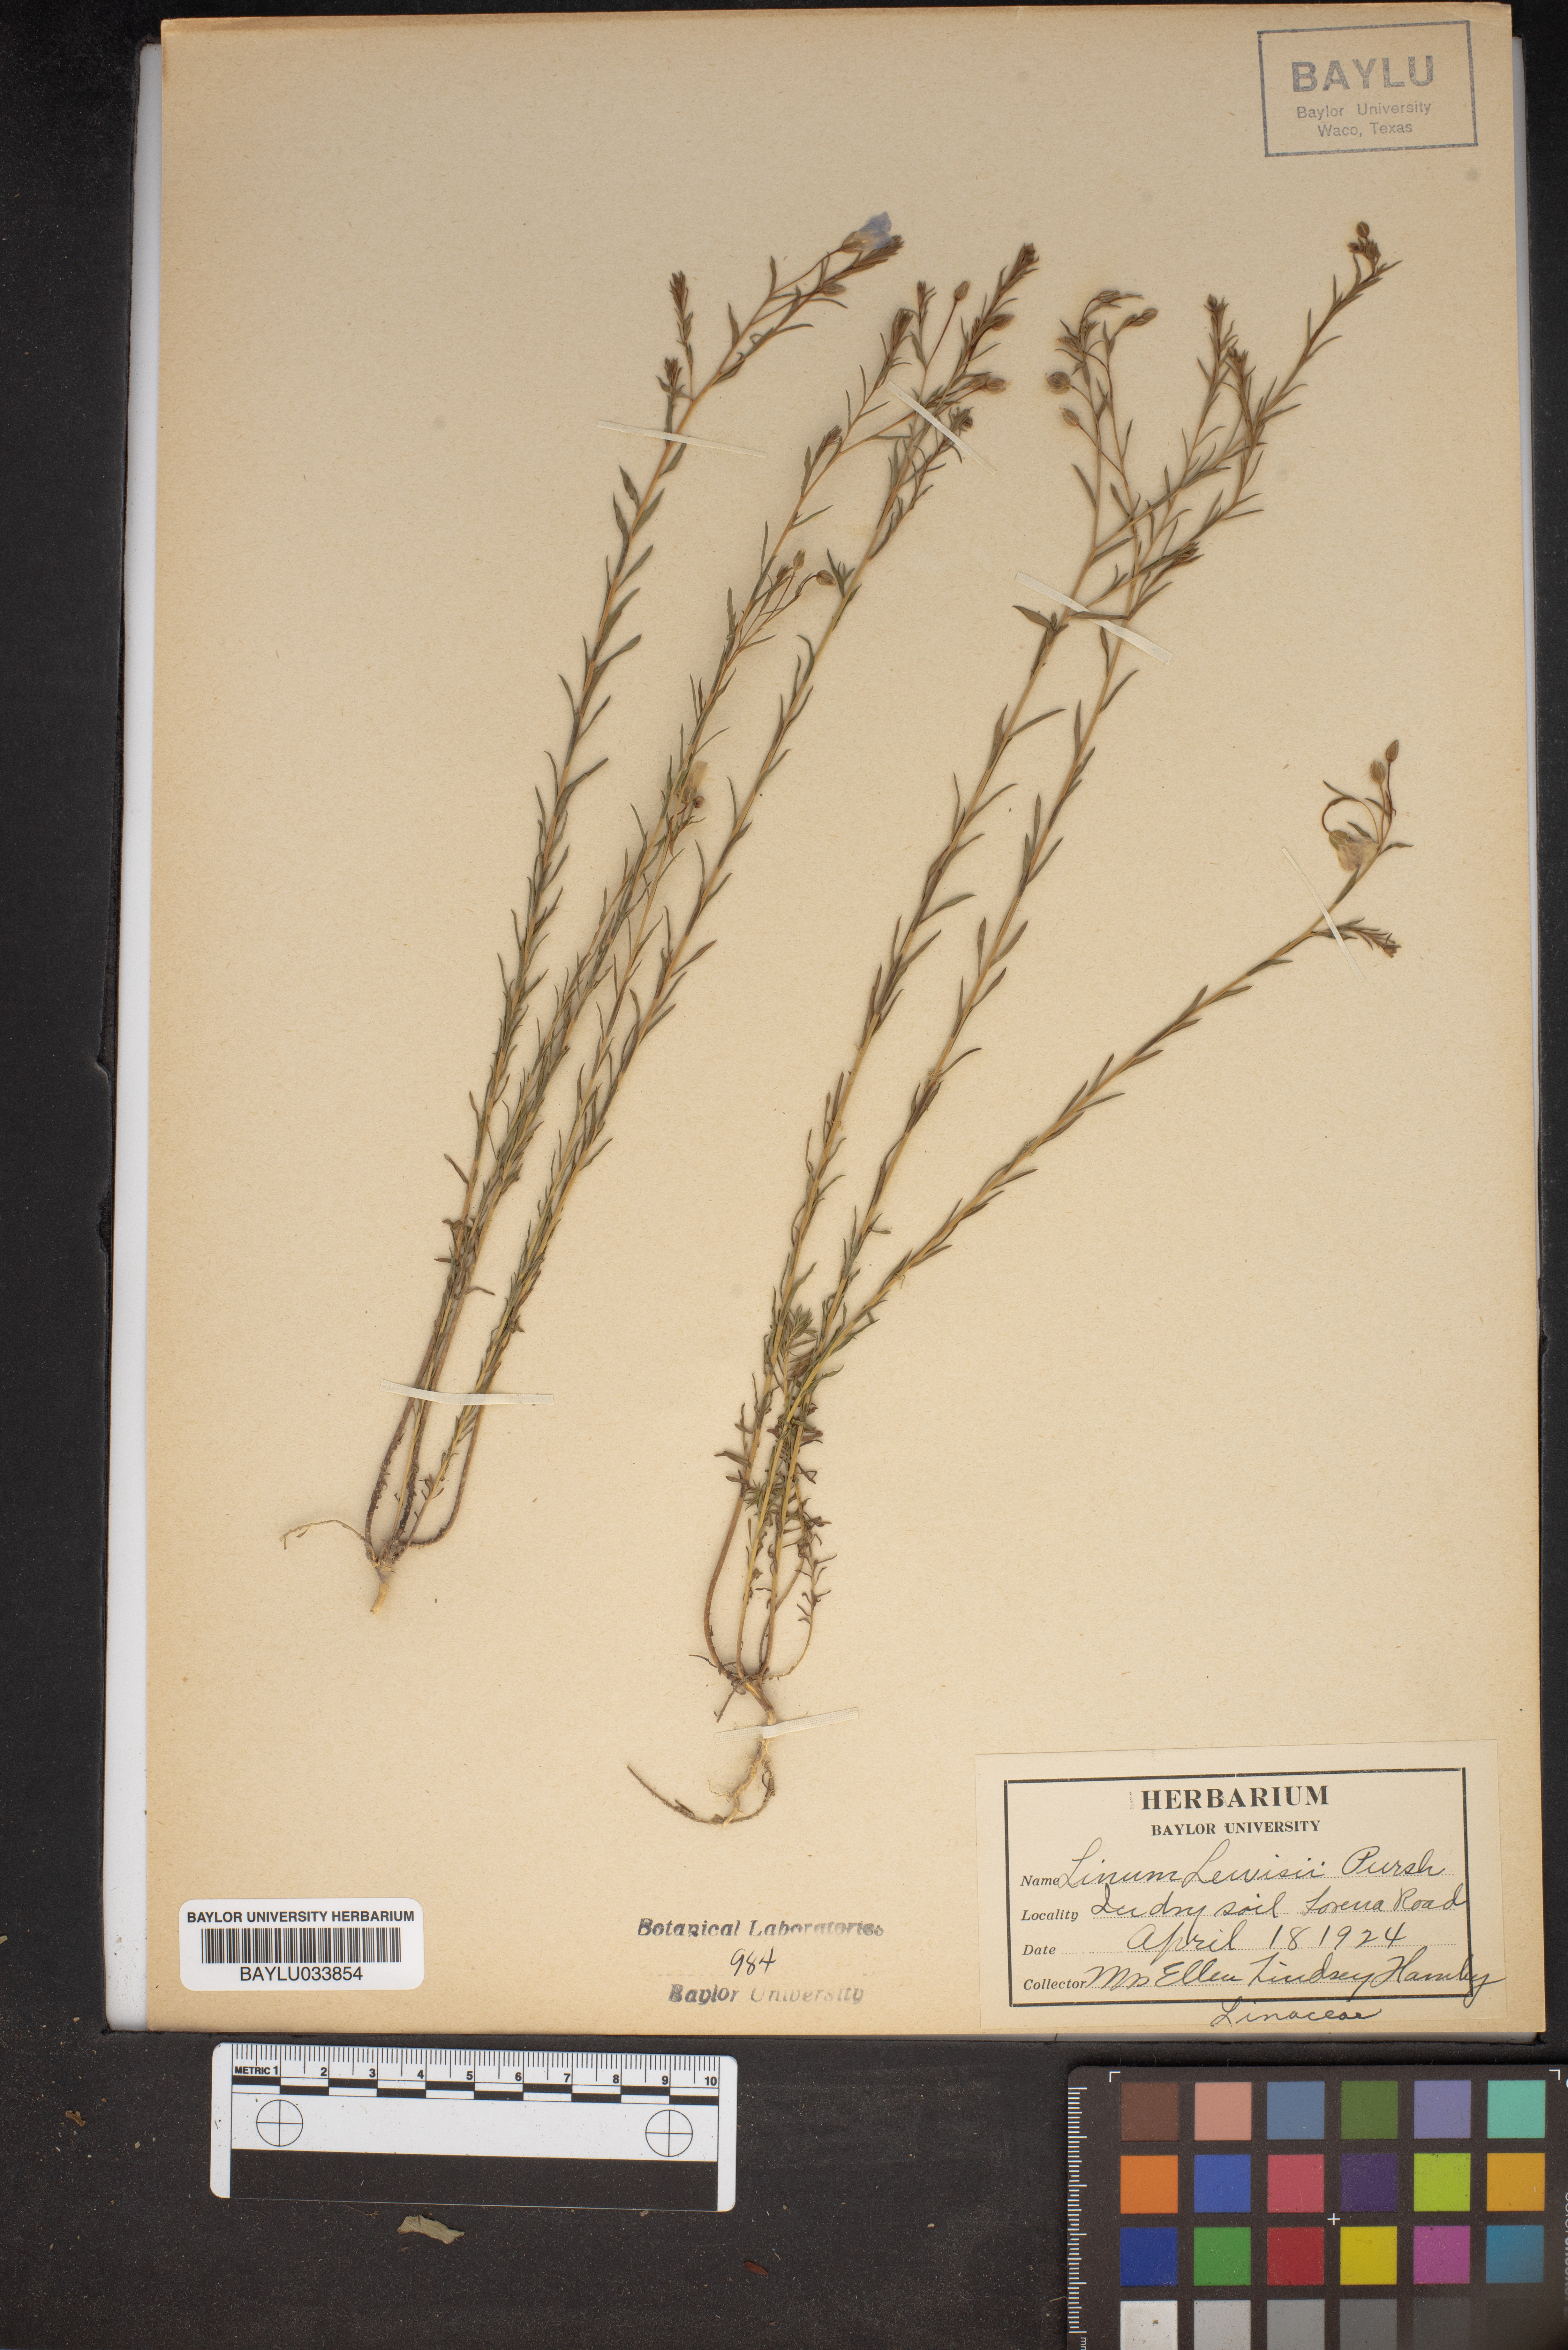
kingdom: Plantae
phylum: Tracheophyta
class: Magnoliopsida
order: Malpighiales
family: Linaceae
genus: Linum
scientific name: Linum lewisii
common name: Prairie flax
